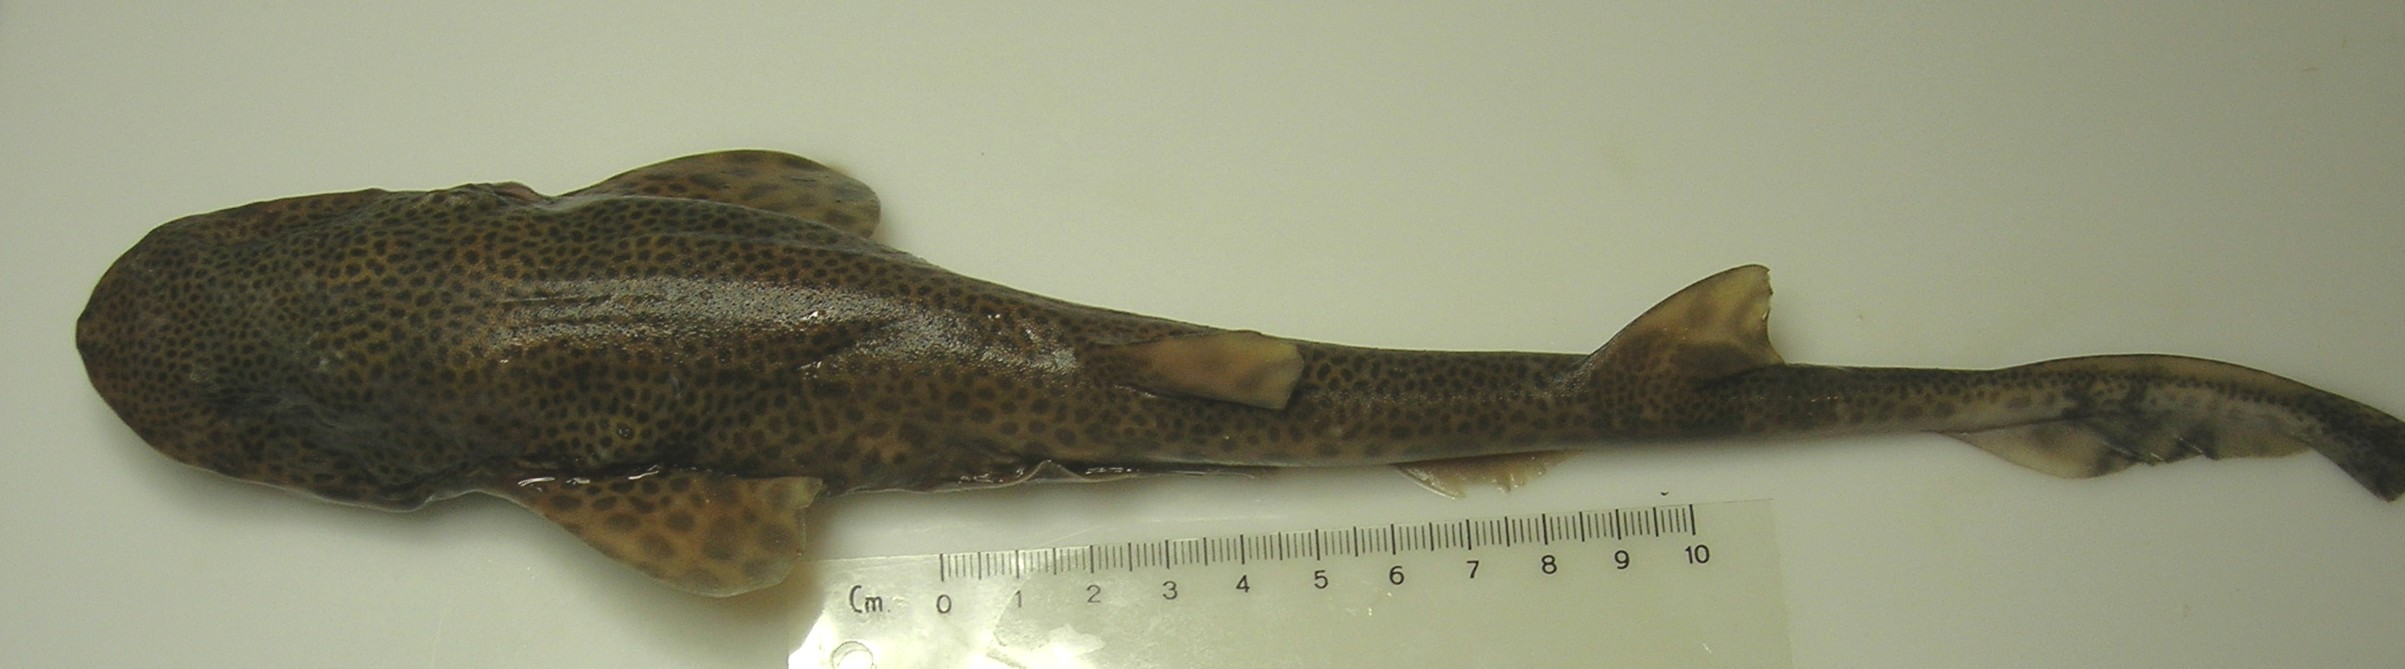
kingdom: Animalia
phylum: Chordata
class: Elasmobranchii
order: Carcharhiniformes
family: Scyliorhinidae
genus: Holohalaelurus
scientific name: Holohalaelurus punctatus
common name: African spotted catshark
